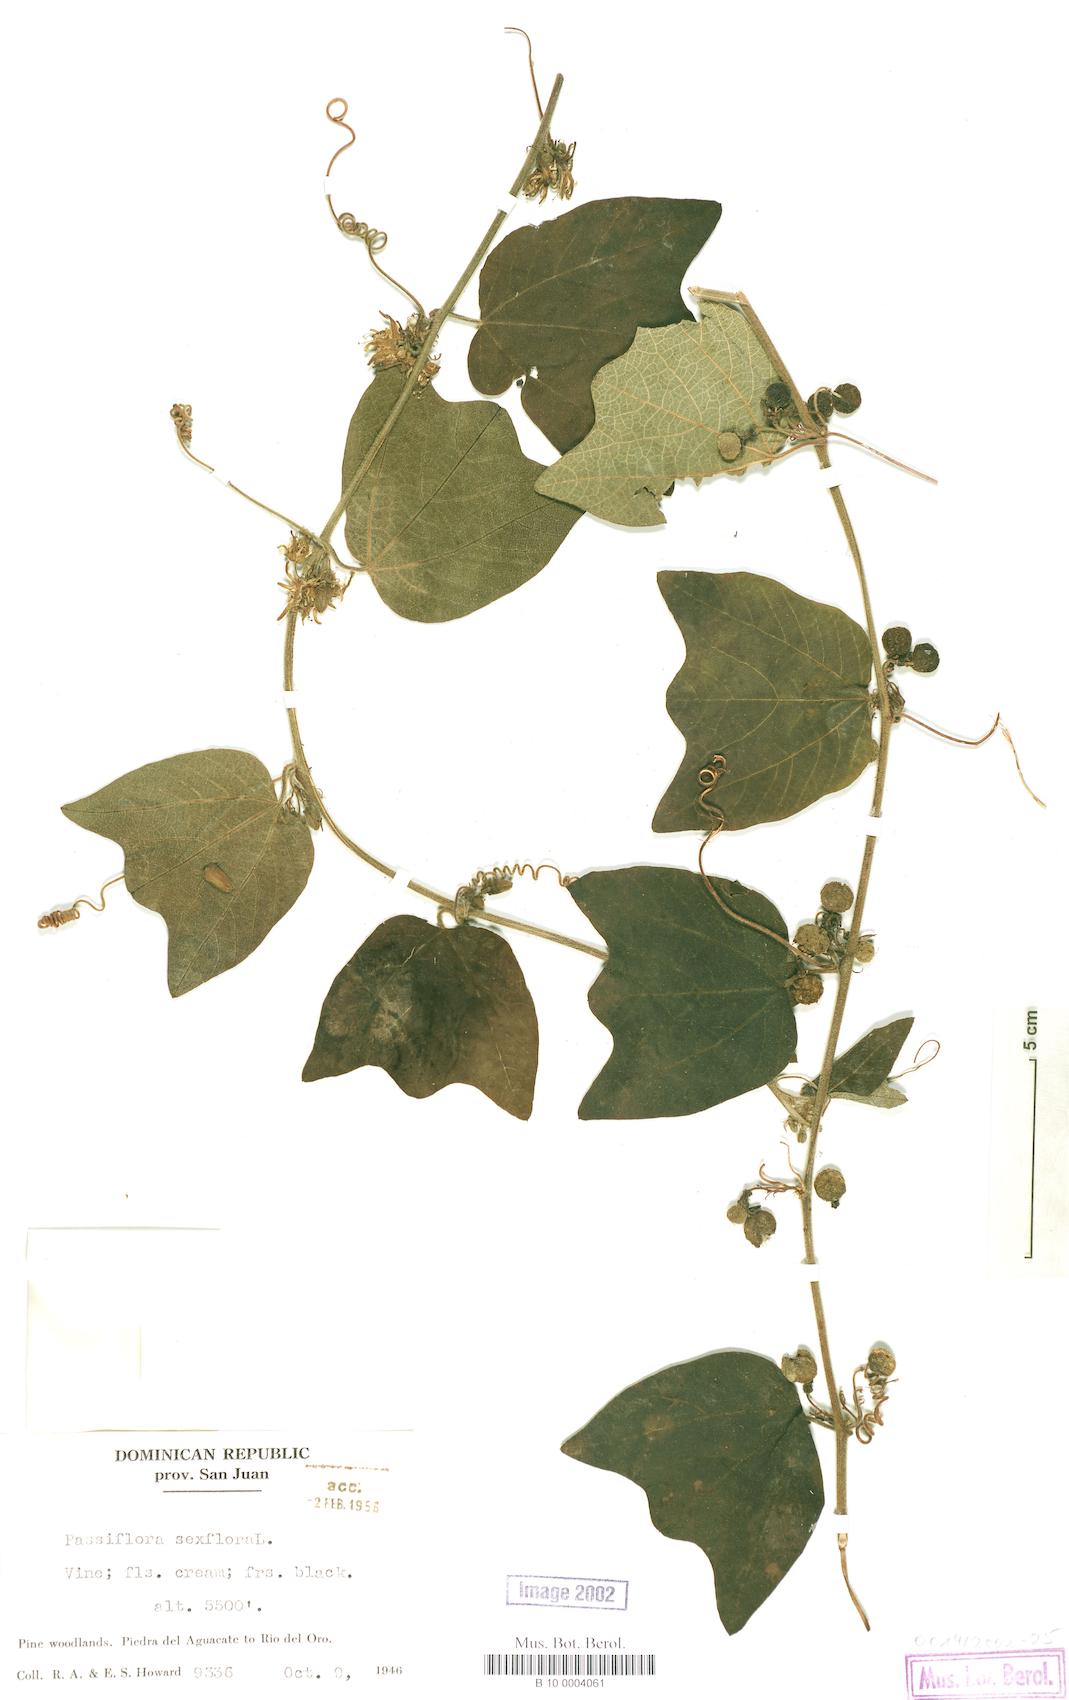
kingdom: Plantae
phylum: Tracheophyta
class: Magnoliopsida
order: Malpighiales
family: Passifloraceae
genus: Passiflora
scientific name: Passiflora sexflora
